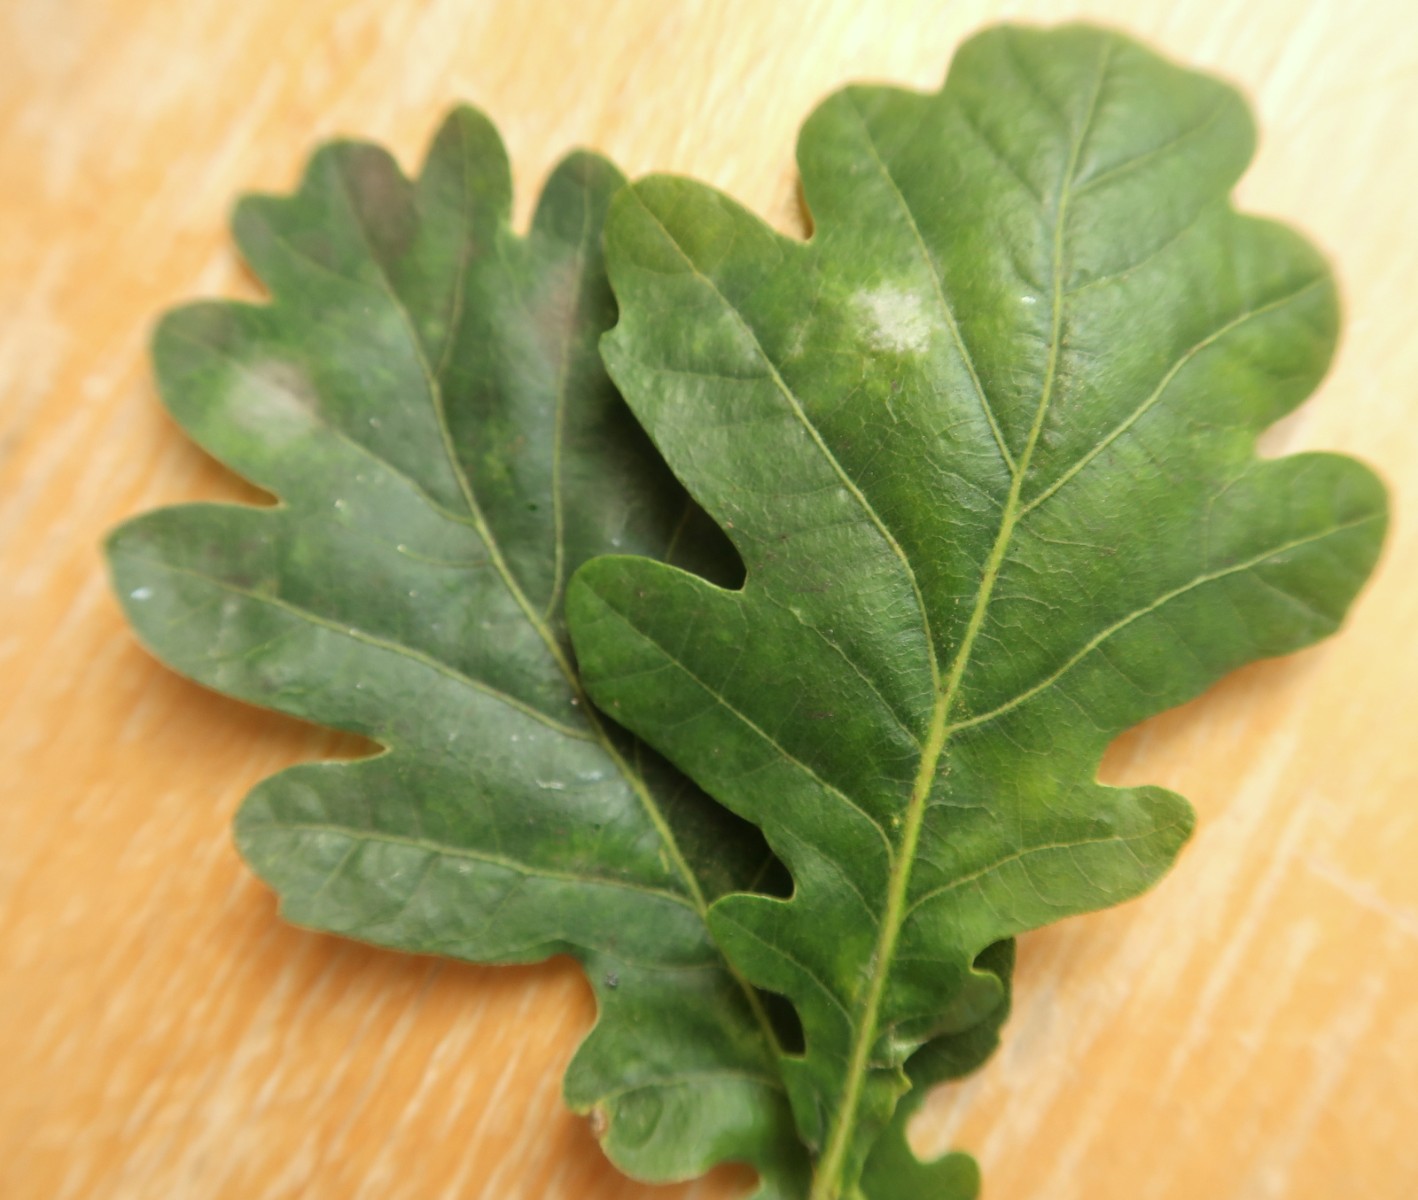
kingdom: Fungi
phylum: Ascomycota
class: Leotiomycetes
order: Helotiales
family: Erysiphaceae
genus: Erysiphe
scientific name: Erysiphe alphitoides
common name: ege-meldug
